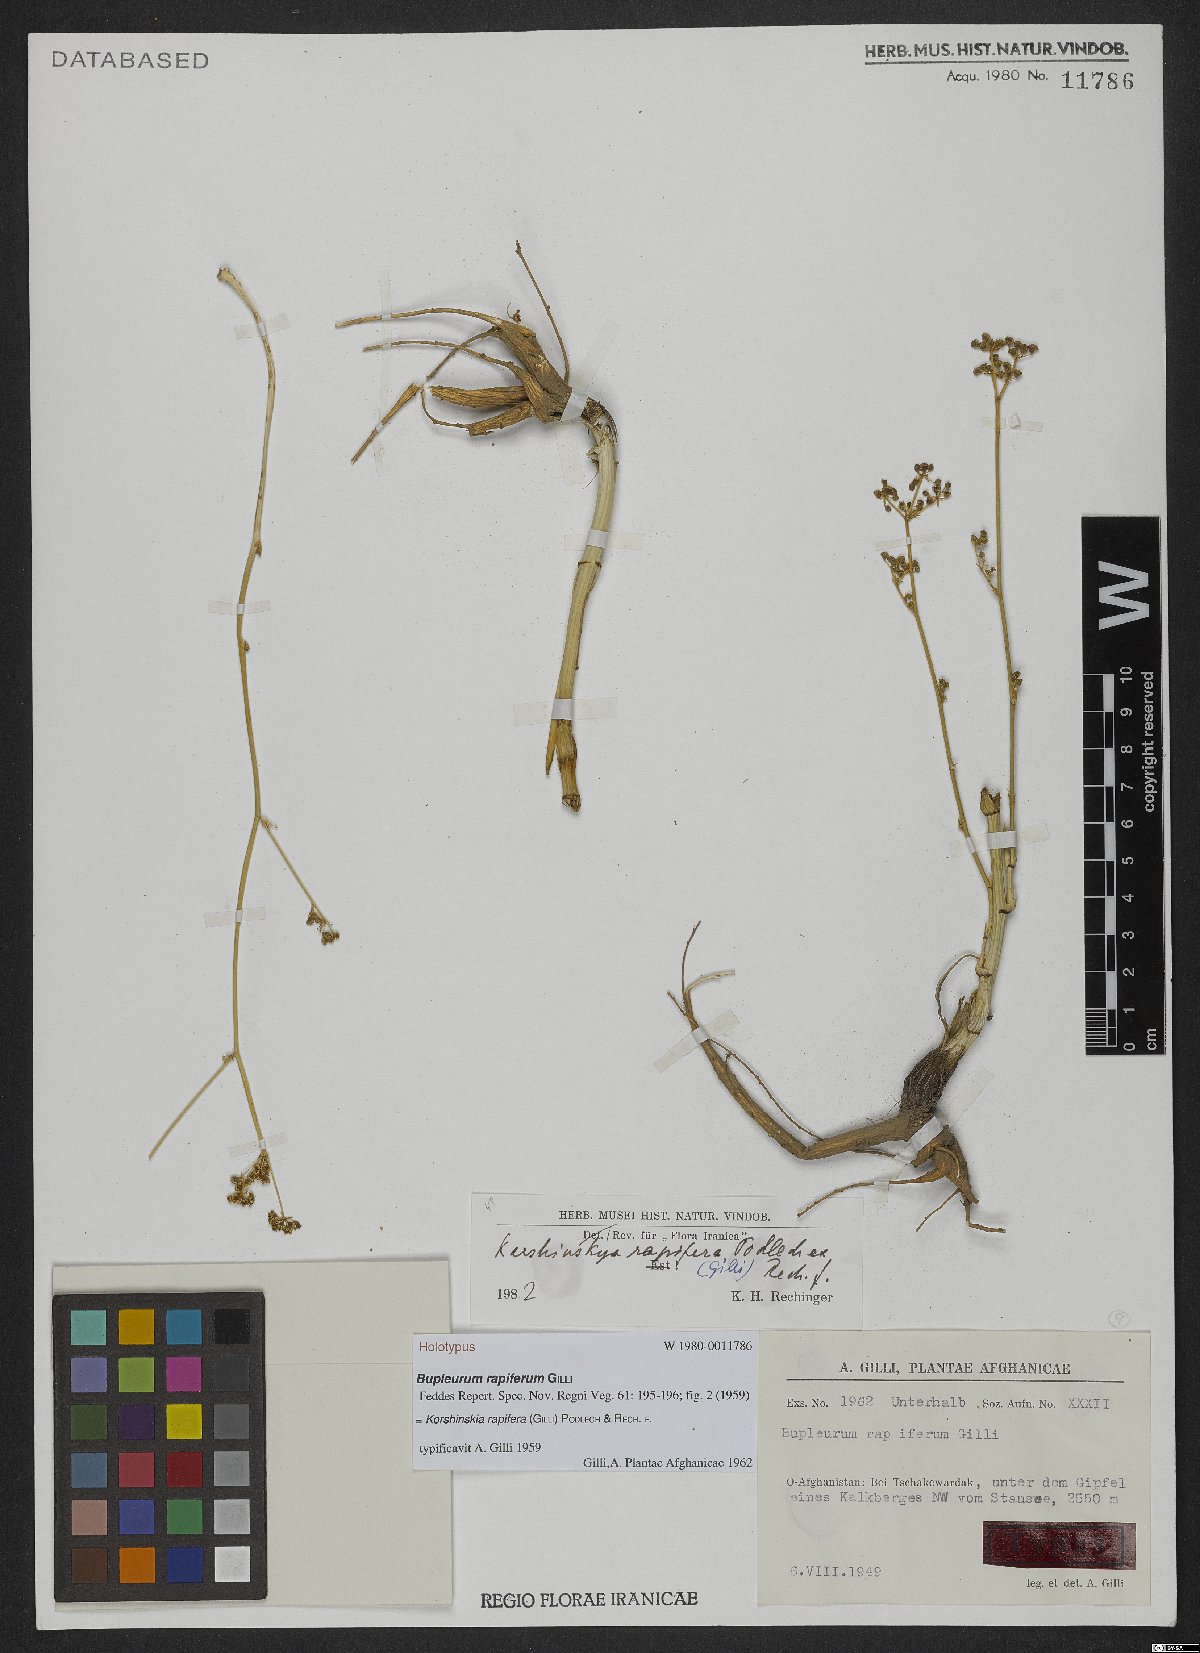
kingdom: Plantae
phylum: Tracheophyta
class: Magnoliopsida
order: Apiales
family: Apiaceae
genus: Korshinskia
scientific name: Korshinskia rapifera
